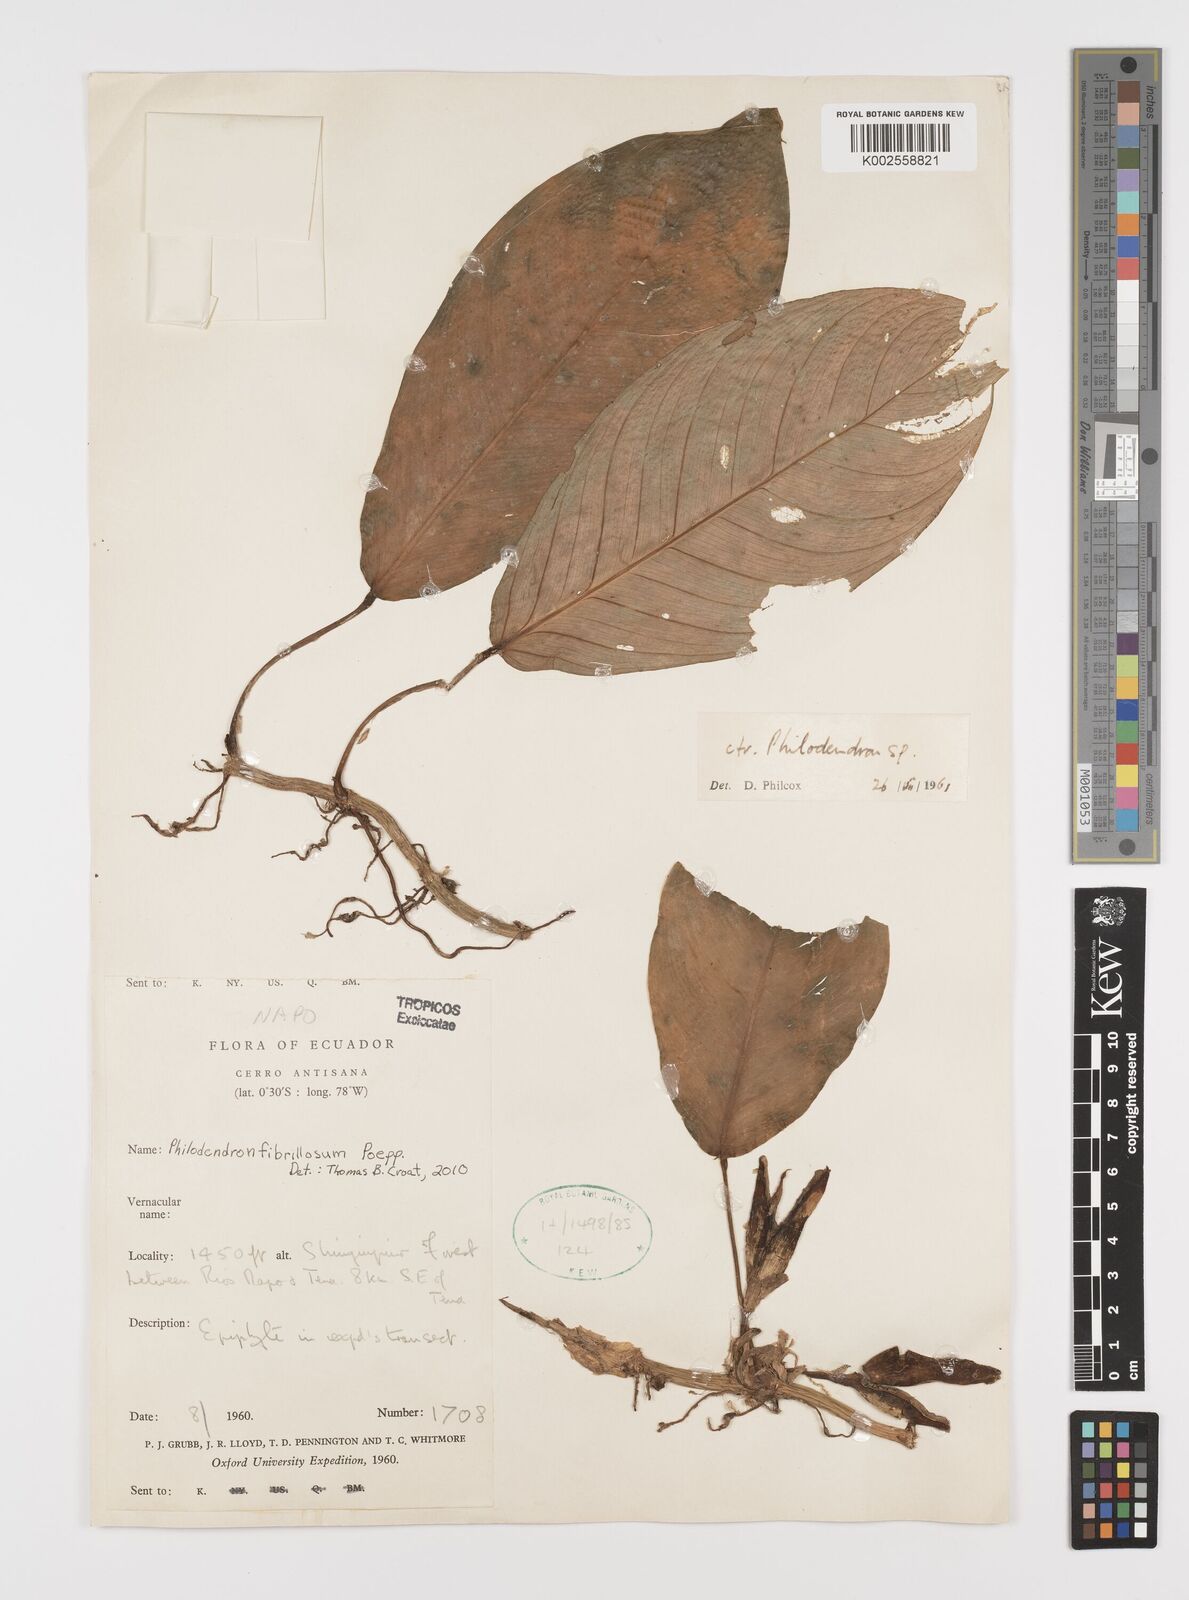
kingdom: Plantae
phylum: Tracheophyta
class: Liliopsida
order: Alismatales
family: Araceae
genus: Philodendron
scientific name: Philodendron fibrillosum
